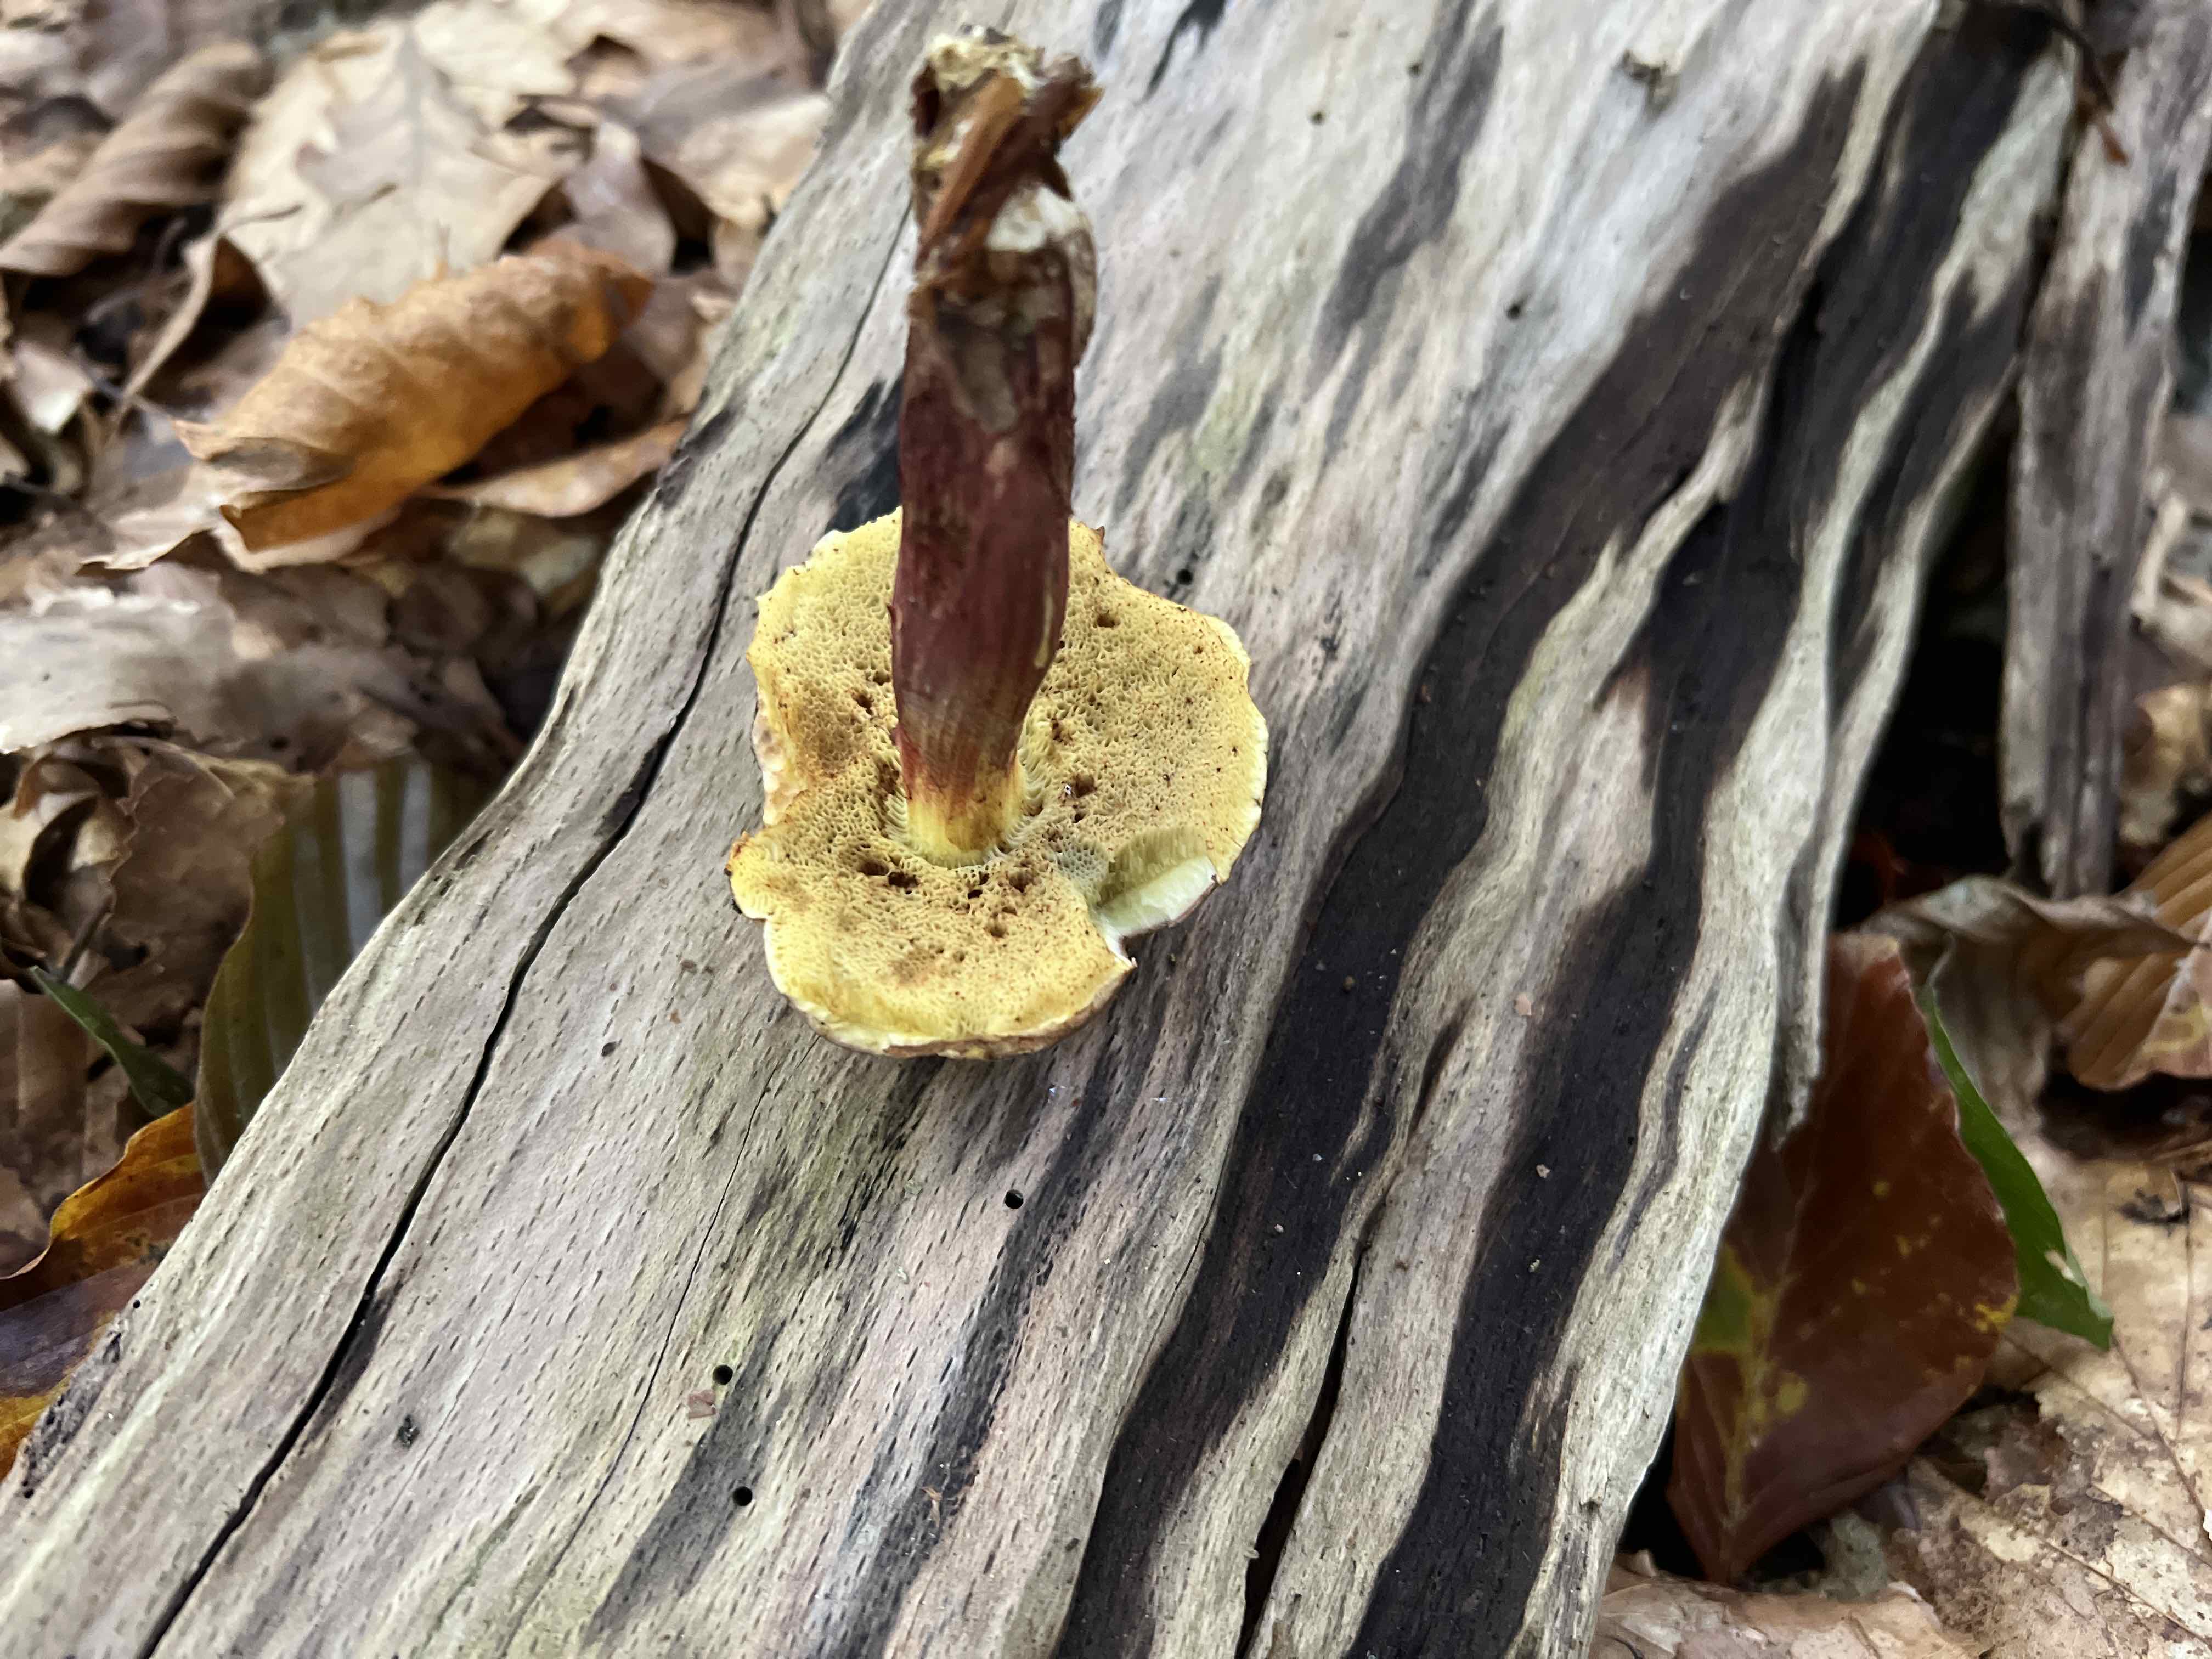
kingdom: Fungi
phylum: Basidiomycota
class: Agaricomycetes
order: Boletales
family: Boletaceae
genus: Xerocomellus
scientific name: Xerocomellus chrysenteron
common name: rødsprukken rørhat
